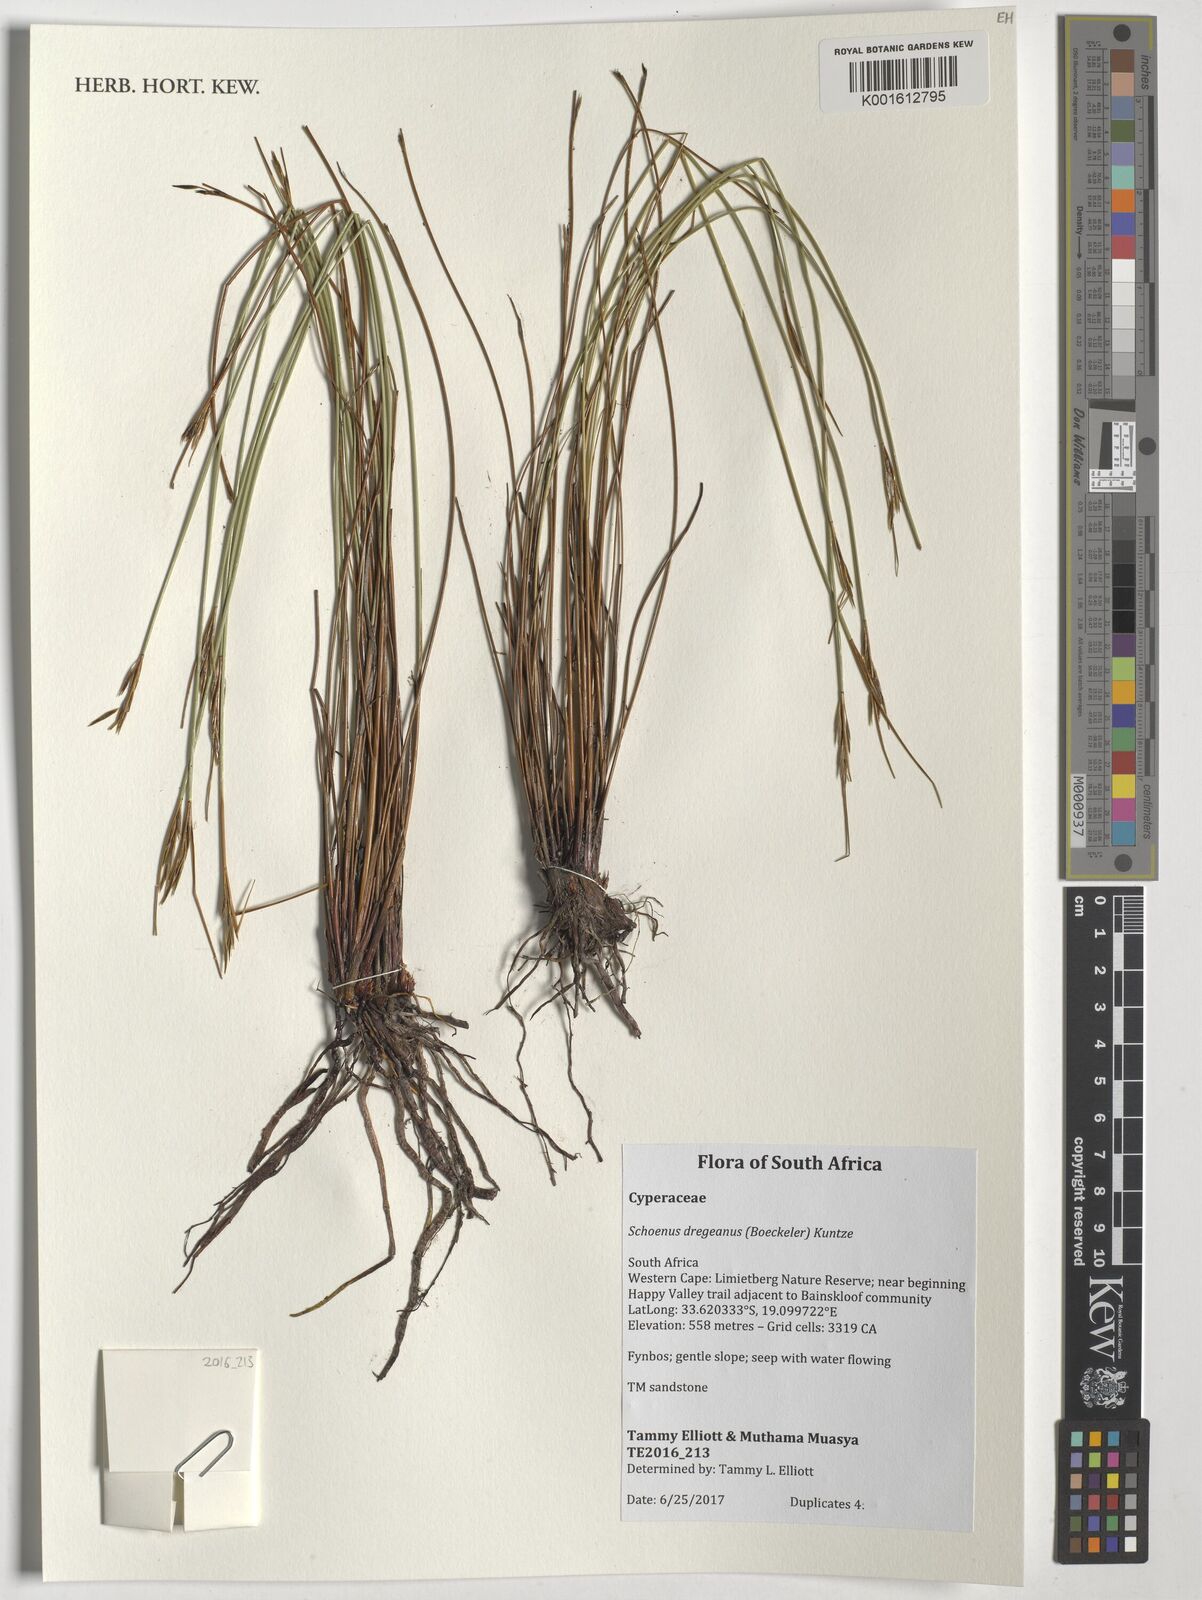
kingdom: Plantae
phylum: Tracheophyta
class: Liliopsida
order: Poales
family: Cyperaceae
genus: Schoenus
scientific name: Schoenus dregeanus
